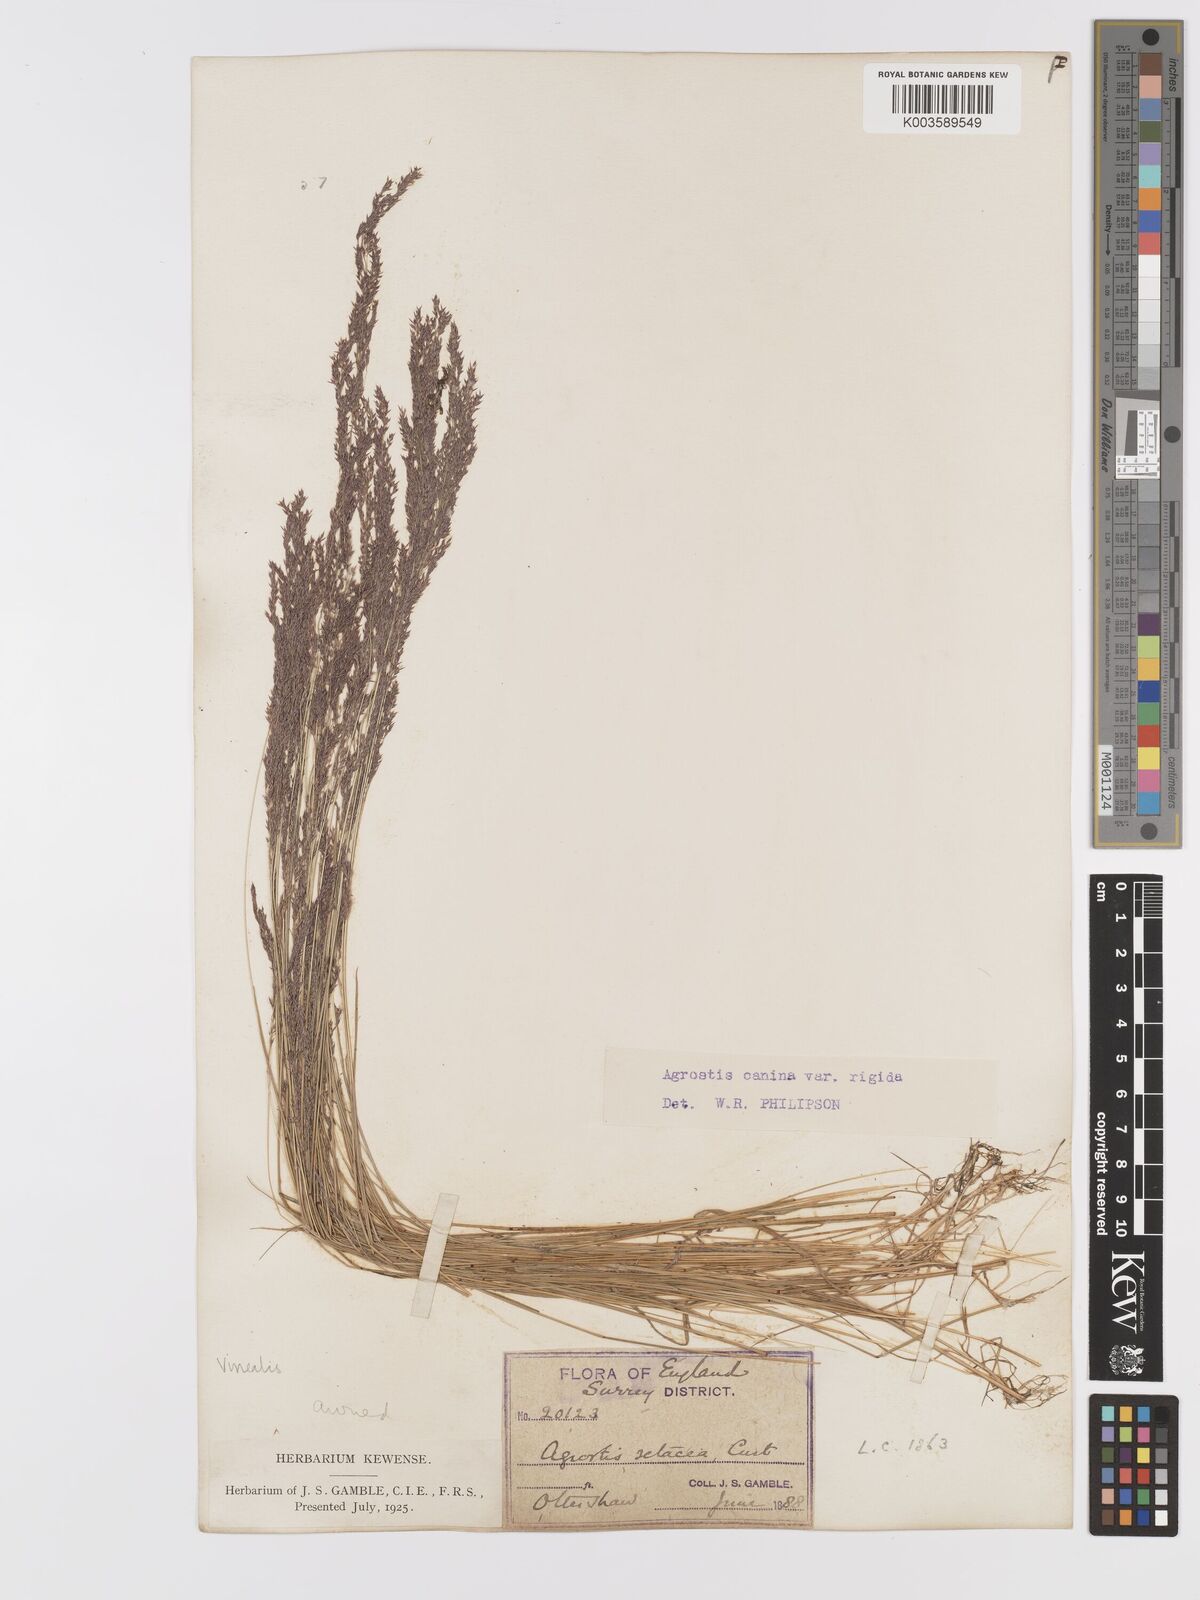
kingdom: Plantae
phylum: Tracheophyta
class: Liliopsida
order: Poales
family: Poaceae
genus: Agrostis
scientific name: Agrostis
